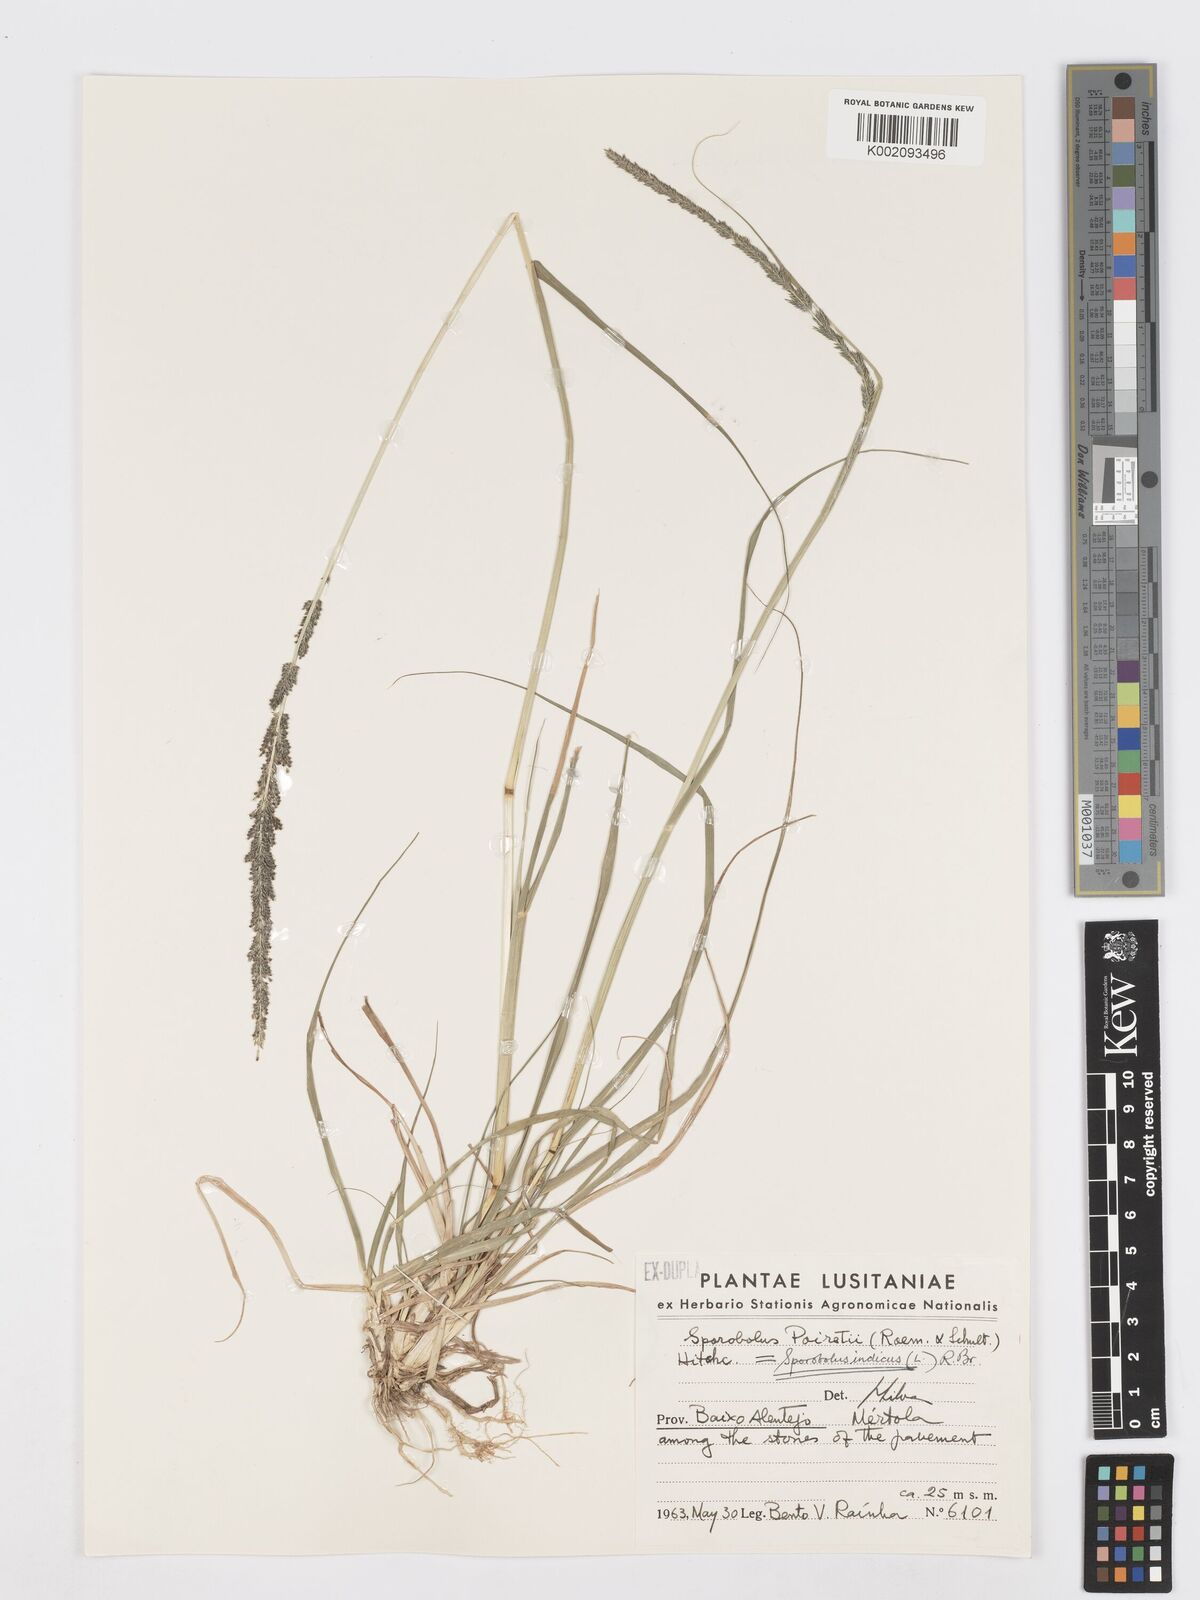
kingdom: Plantae
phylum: Tracheophyta
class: Liliopsida
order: Poales
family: Poaceae
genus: Sporobolus
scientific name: Sporobolus indicus
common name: Smut grass
